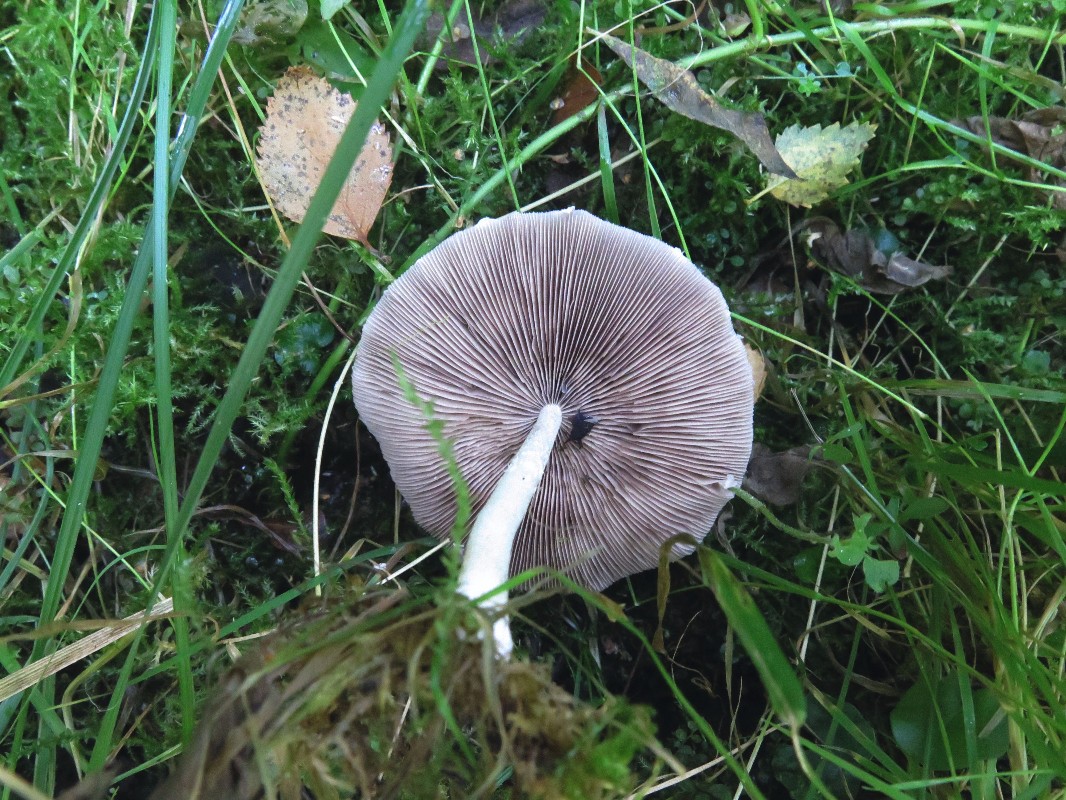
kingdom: Fungi
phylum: Basidiomycota
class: Agaricomycetes
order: Agaricales
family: Psathyrellaceae
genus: Candolleomyces
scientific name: Candolleomyces candolleanus
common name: Candolles mørkhat
